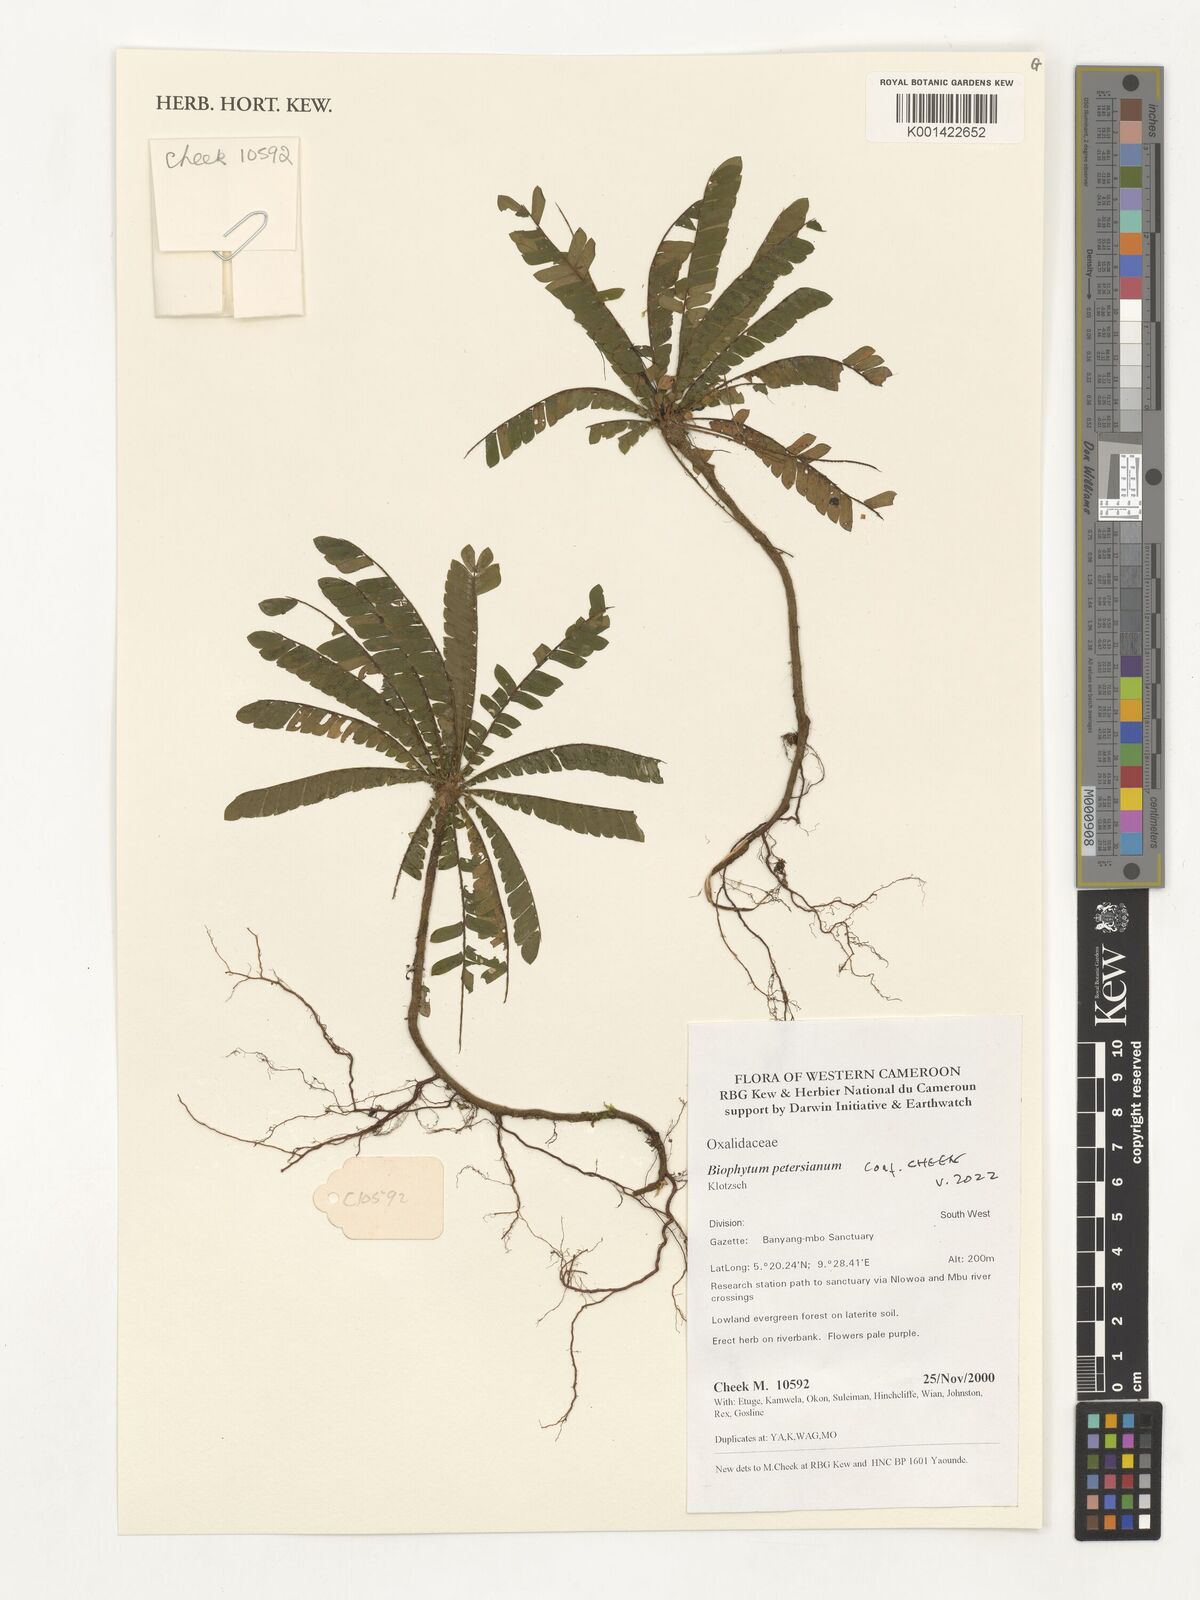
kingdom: Plantae
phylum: Tracheophyta
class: Magnoliopsida
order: Oxalidales
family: Oxalidaceae
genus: Biophytum
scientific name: Biophytum umbraculum
